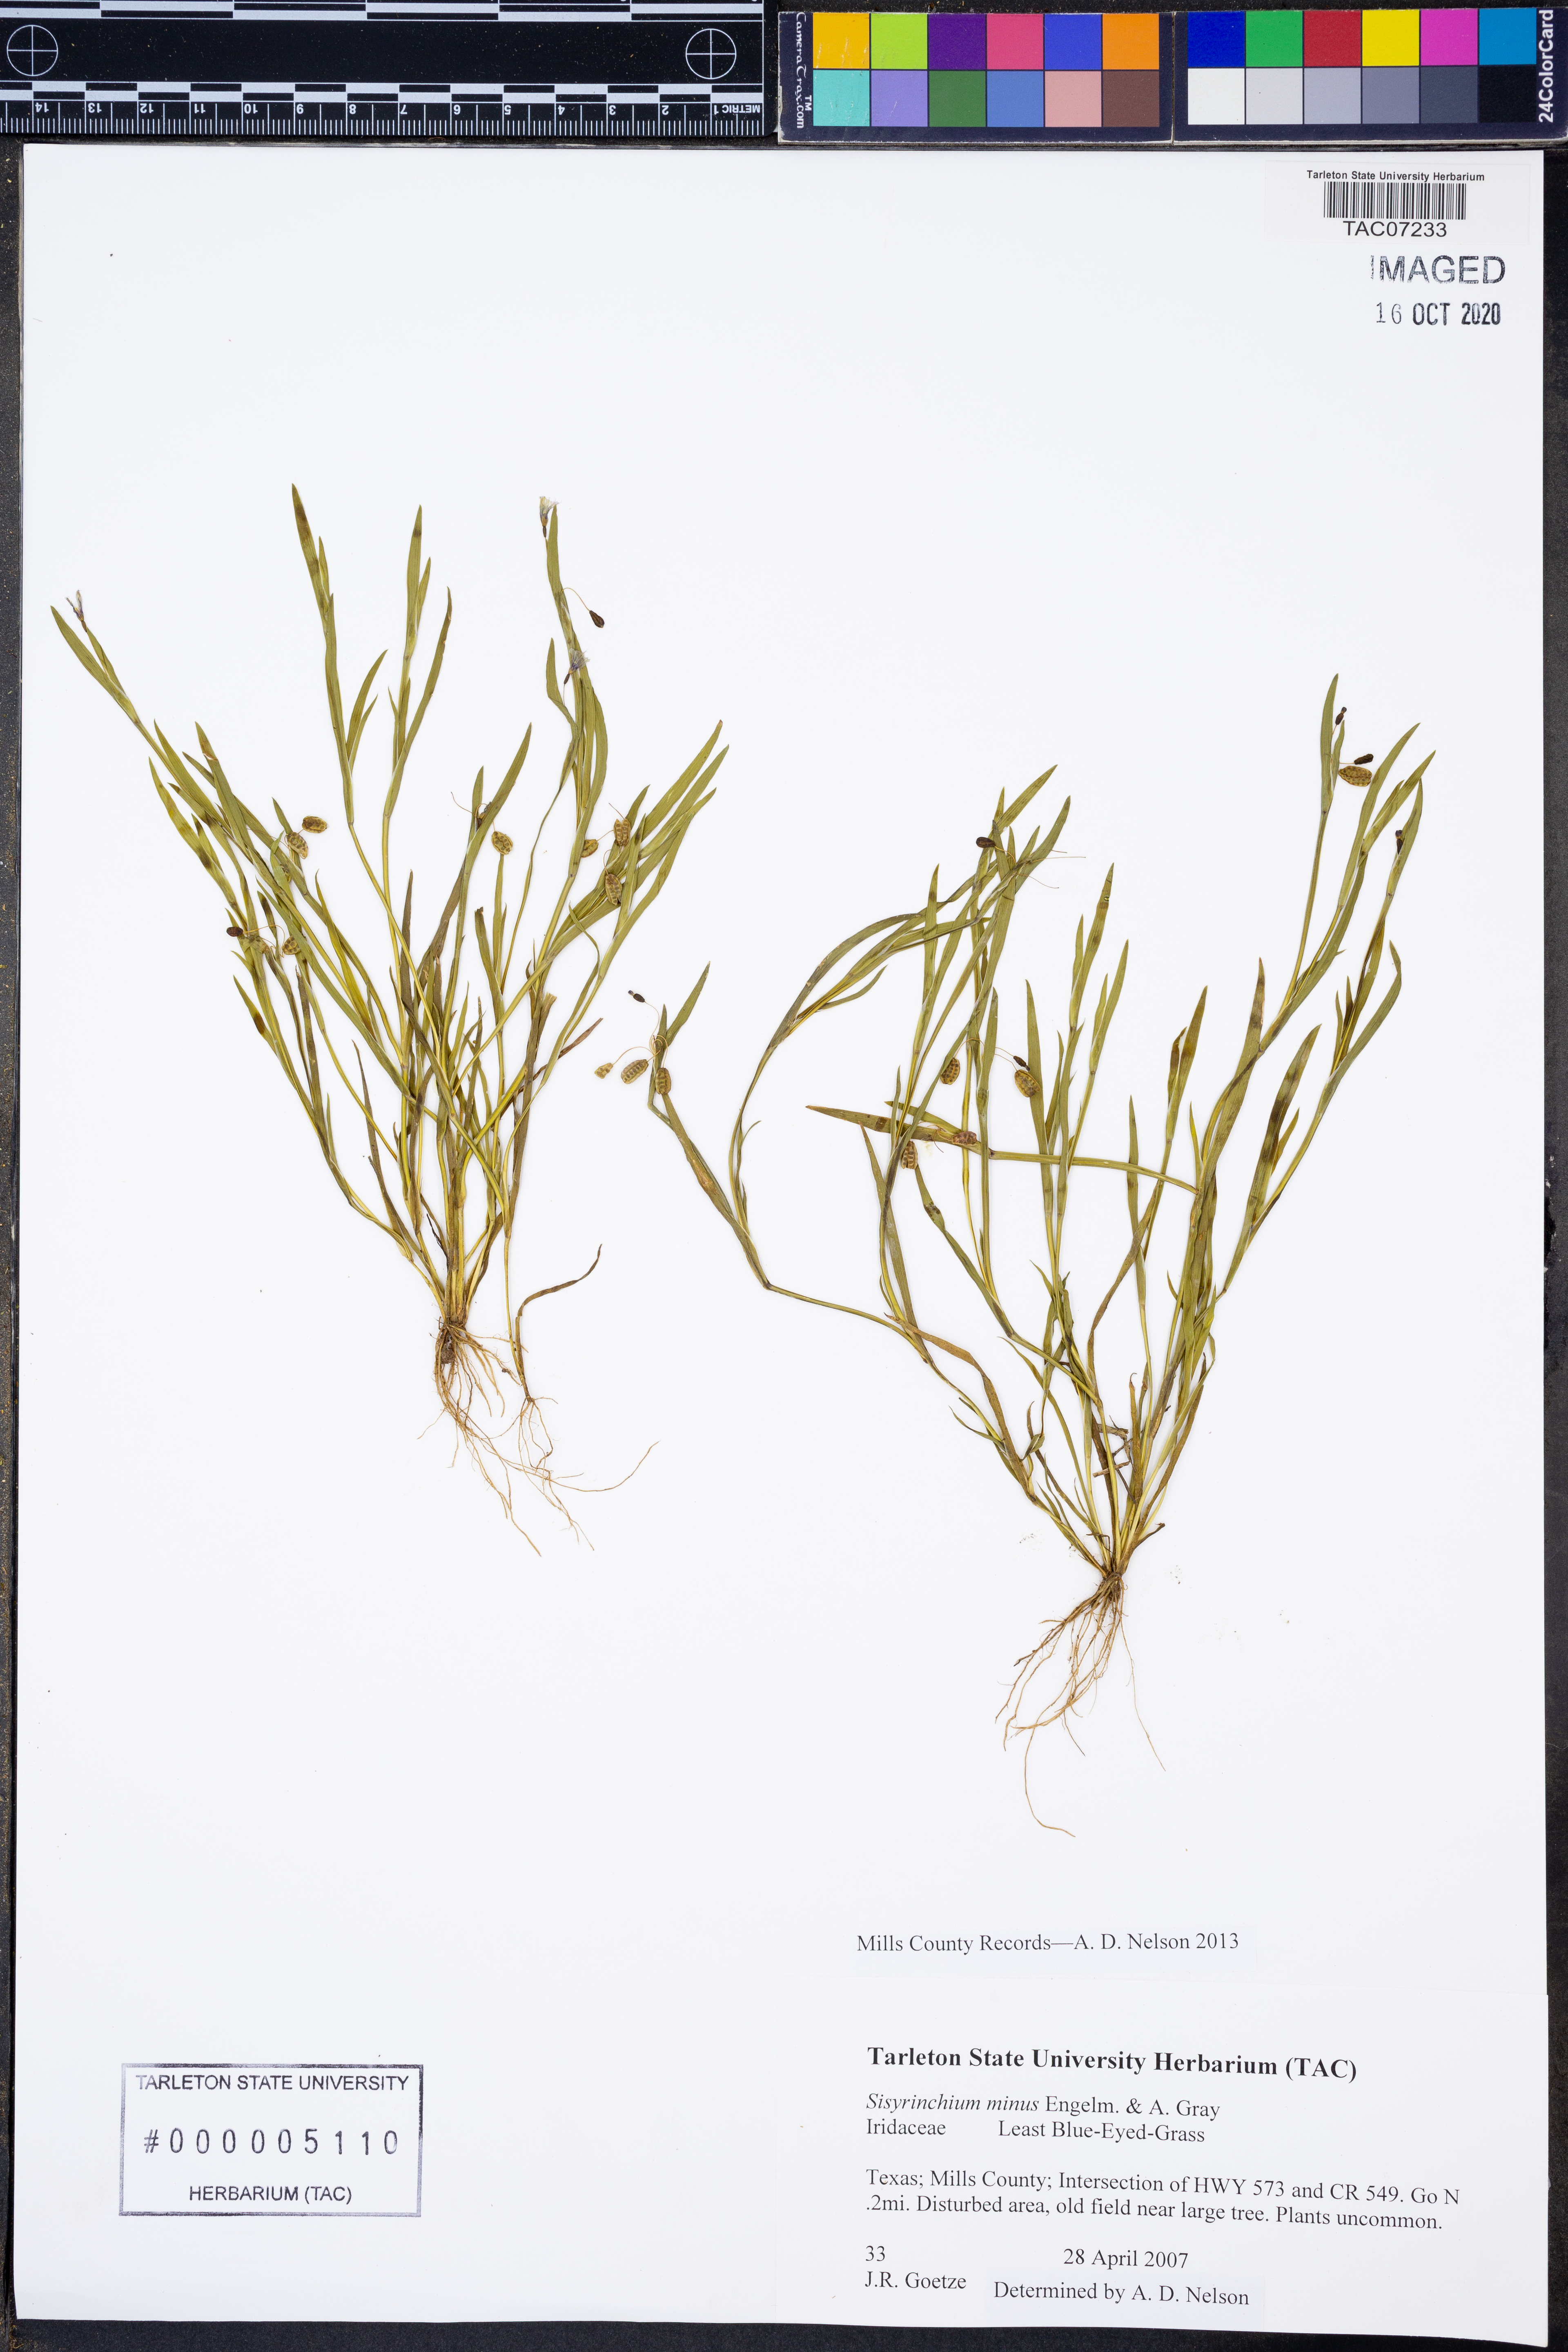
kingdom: Plantae
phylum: Tracheophyta
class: Liliopsida
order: Asparagales
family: Iridaceae
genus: Sisyrinchium
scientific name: Sisyrinchium minus
